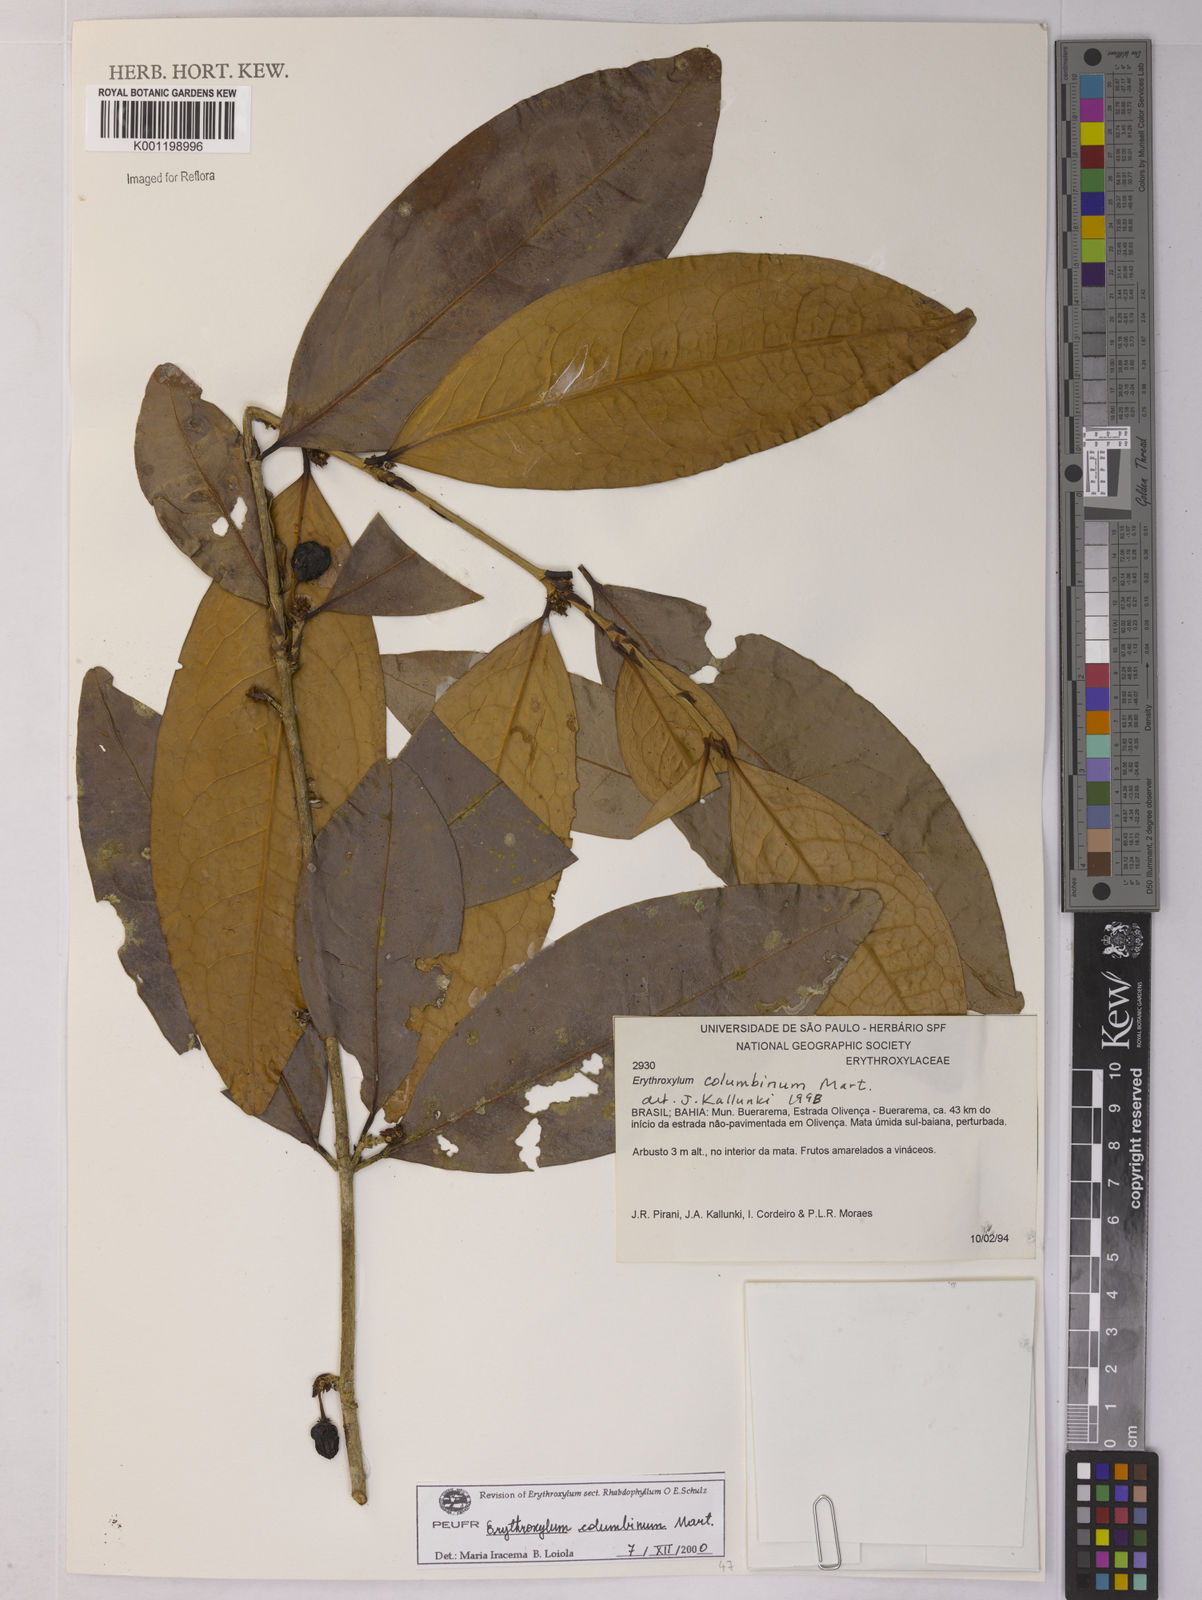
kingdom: Plantae
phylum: Tracheophyta
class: Magnoliopsida
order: Malpighiales
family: Erythroxylaceae
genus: Erythroxylum
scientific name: Erythroxylum columbinum
